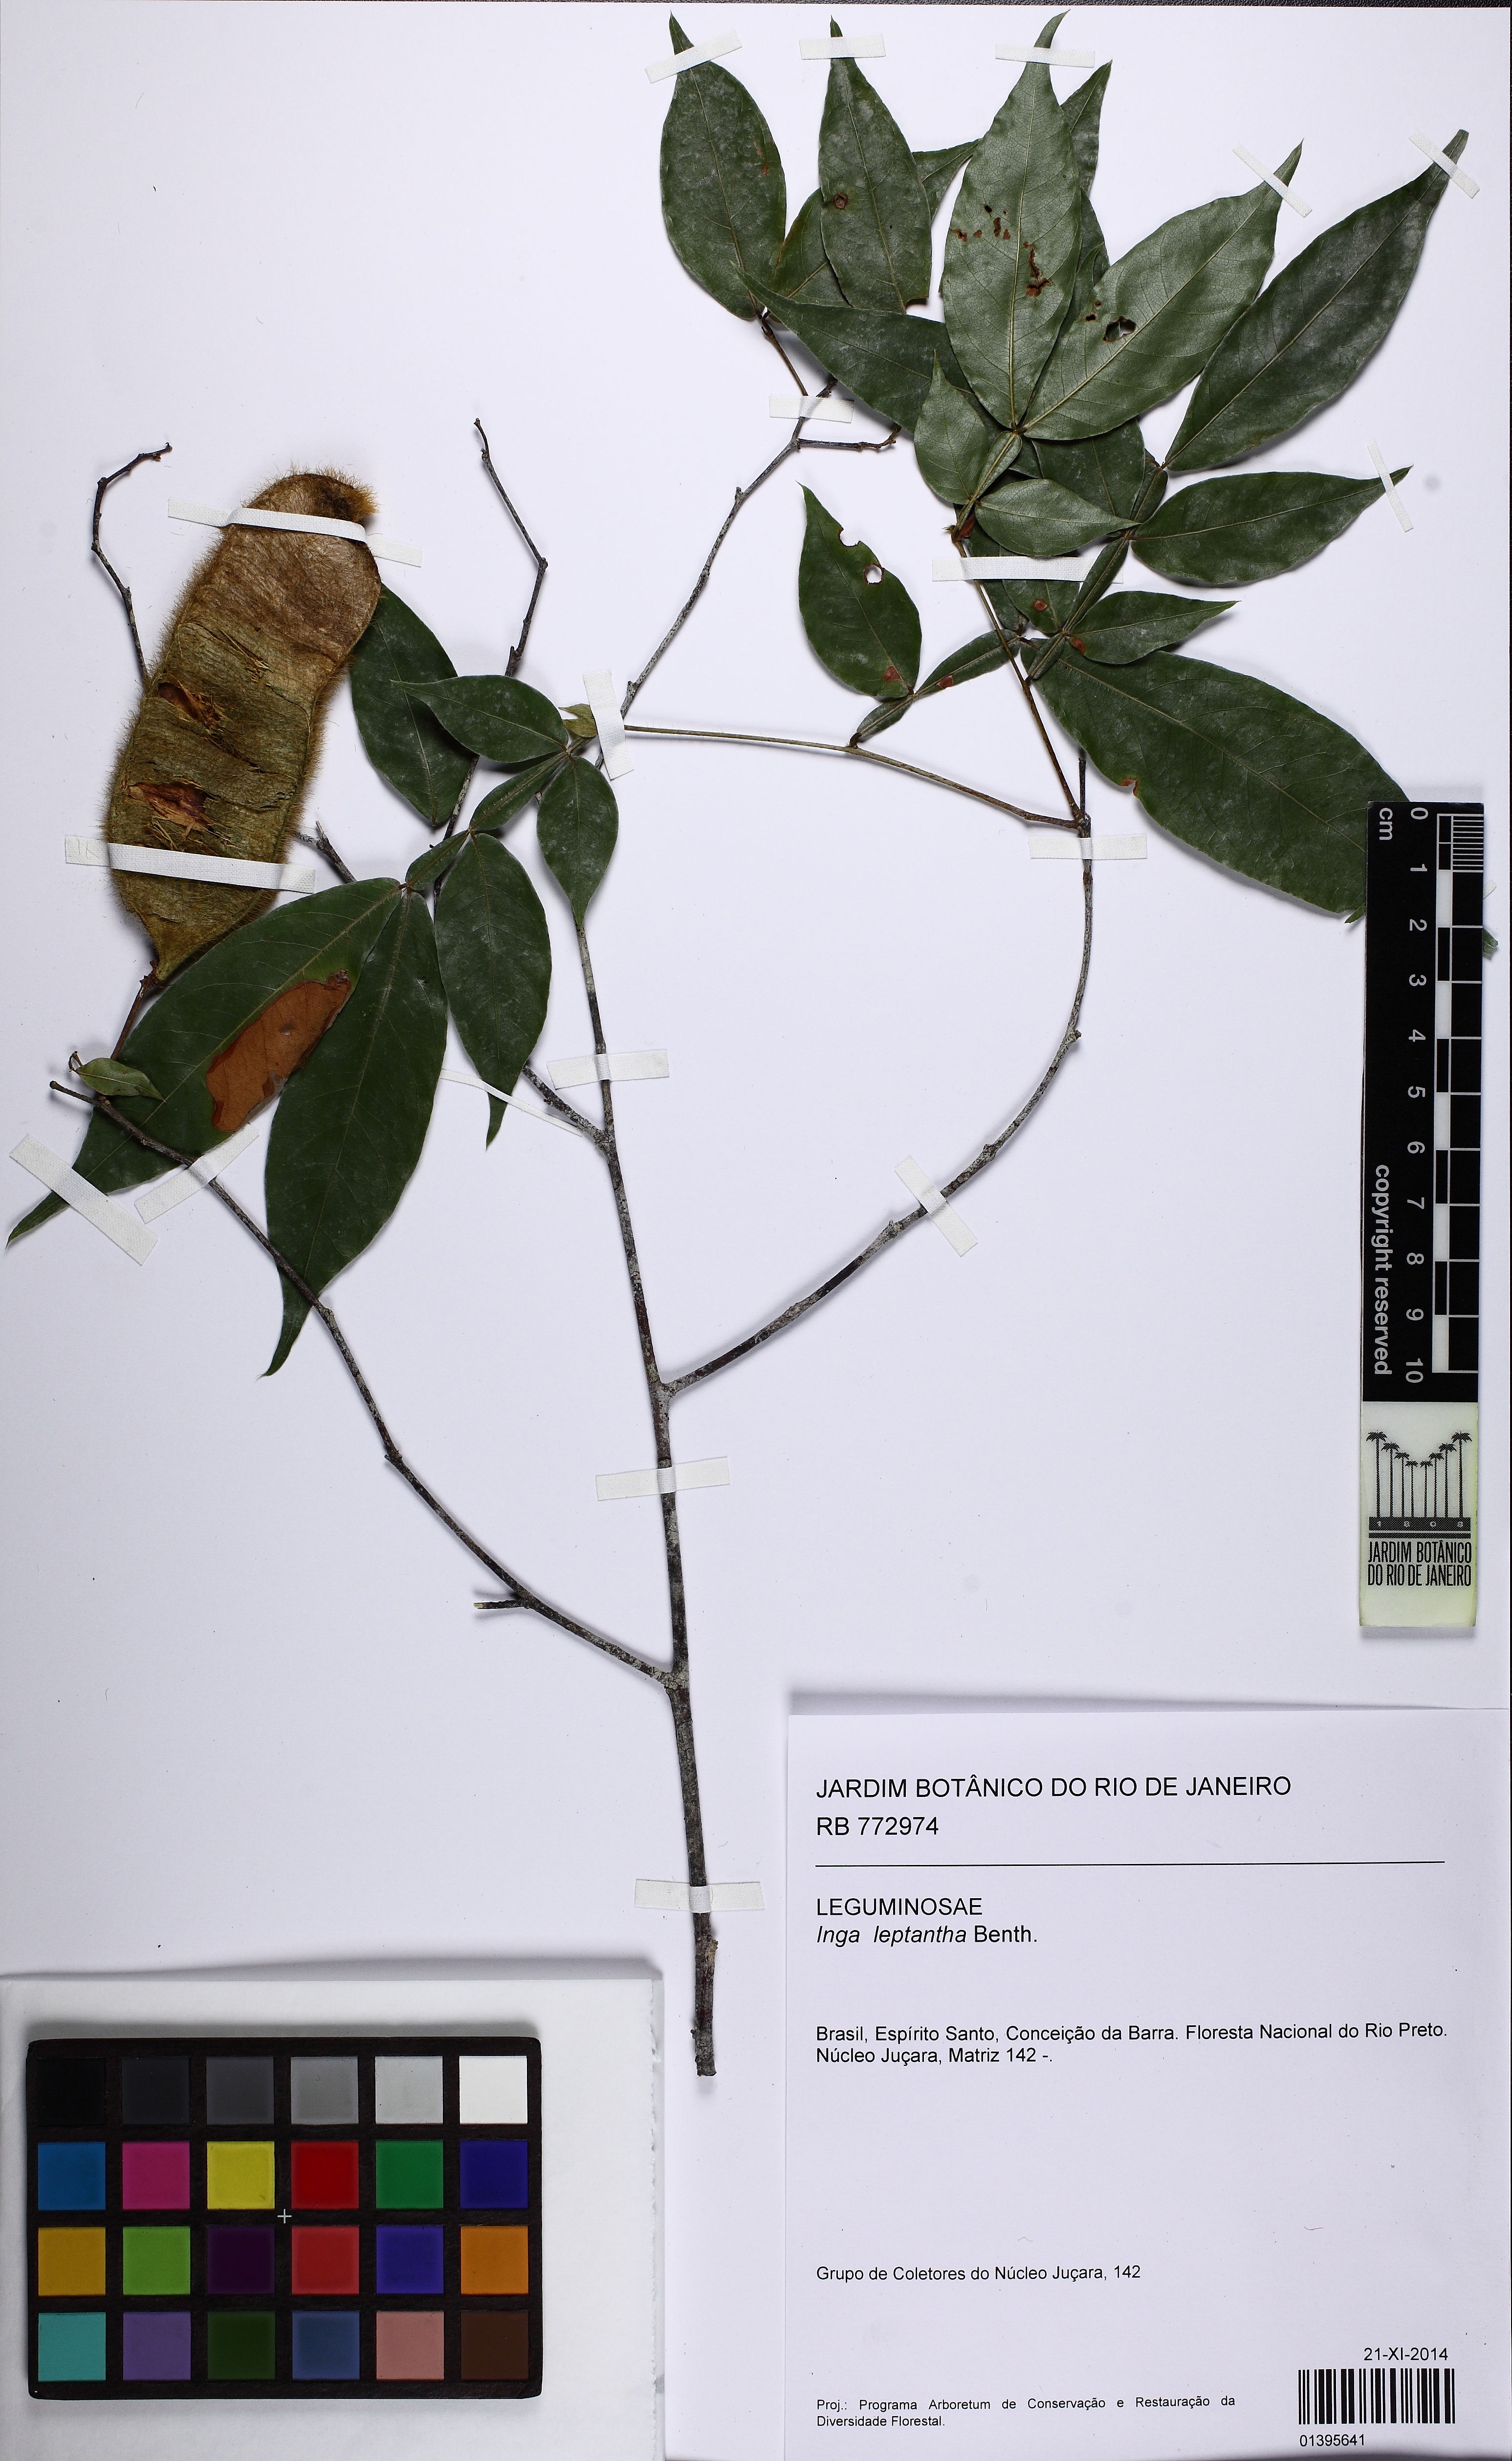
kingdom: Plantae
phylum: Tracheophyta
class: Magnoliopsida
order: Fabales
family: Fabaceae
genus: Inga
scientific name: Inga leptantha
